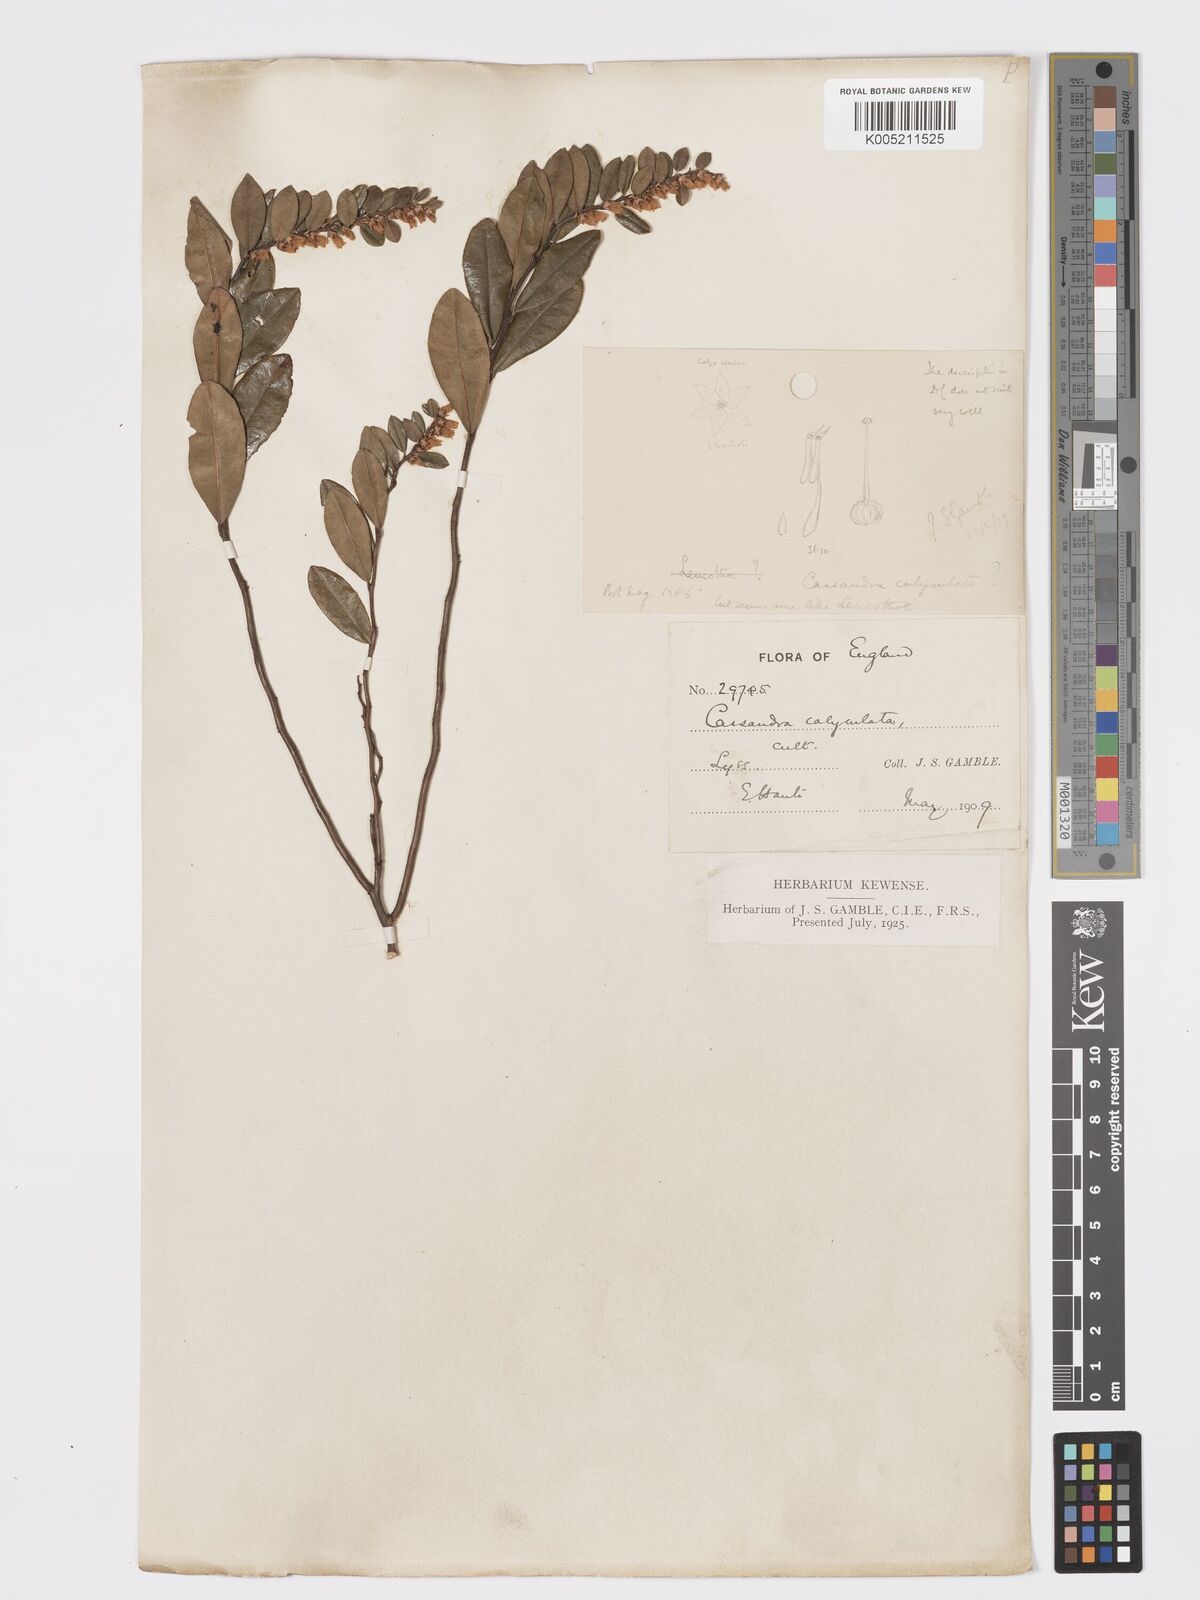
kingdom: Plantae
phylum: Tracheophyta
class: Magnoliopsida
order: Ericales
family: Ericaceae
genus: Chamaedaphne
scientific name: Chamaedaphne calyculata
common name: Leatherleaf
